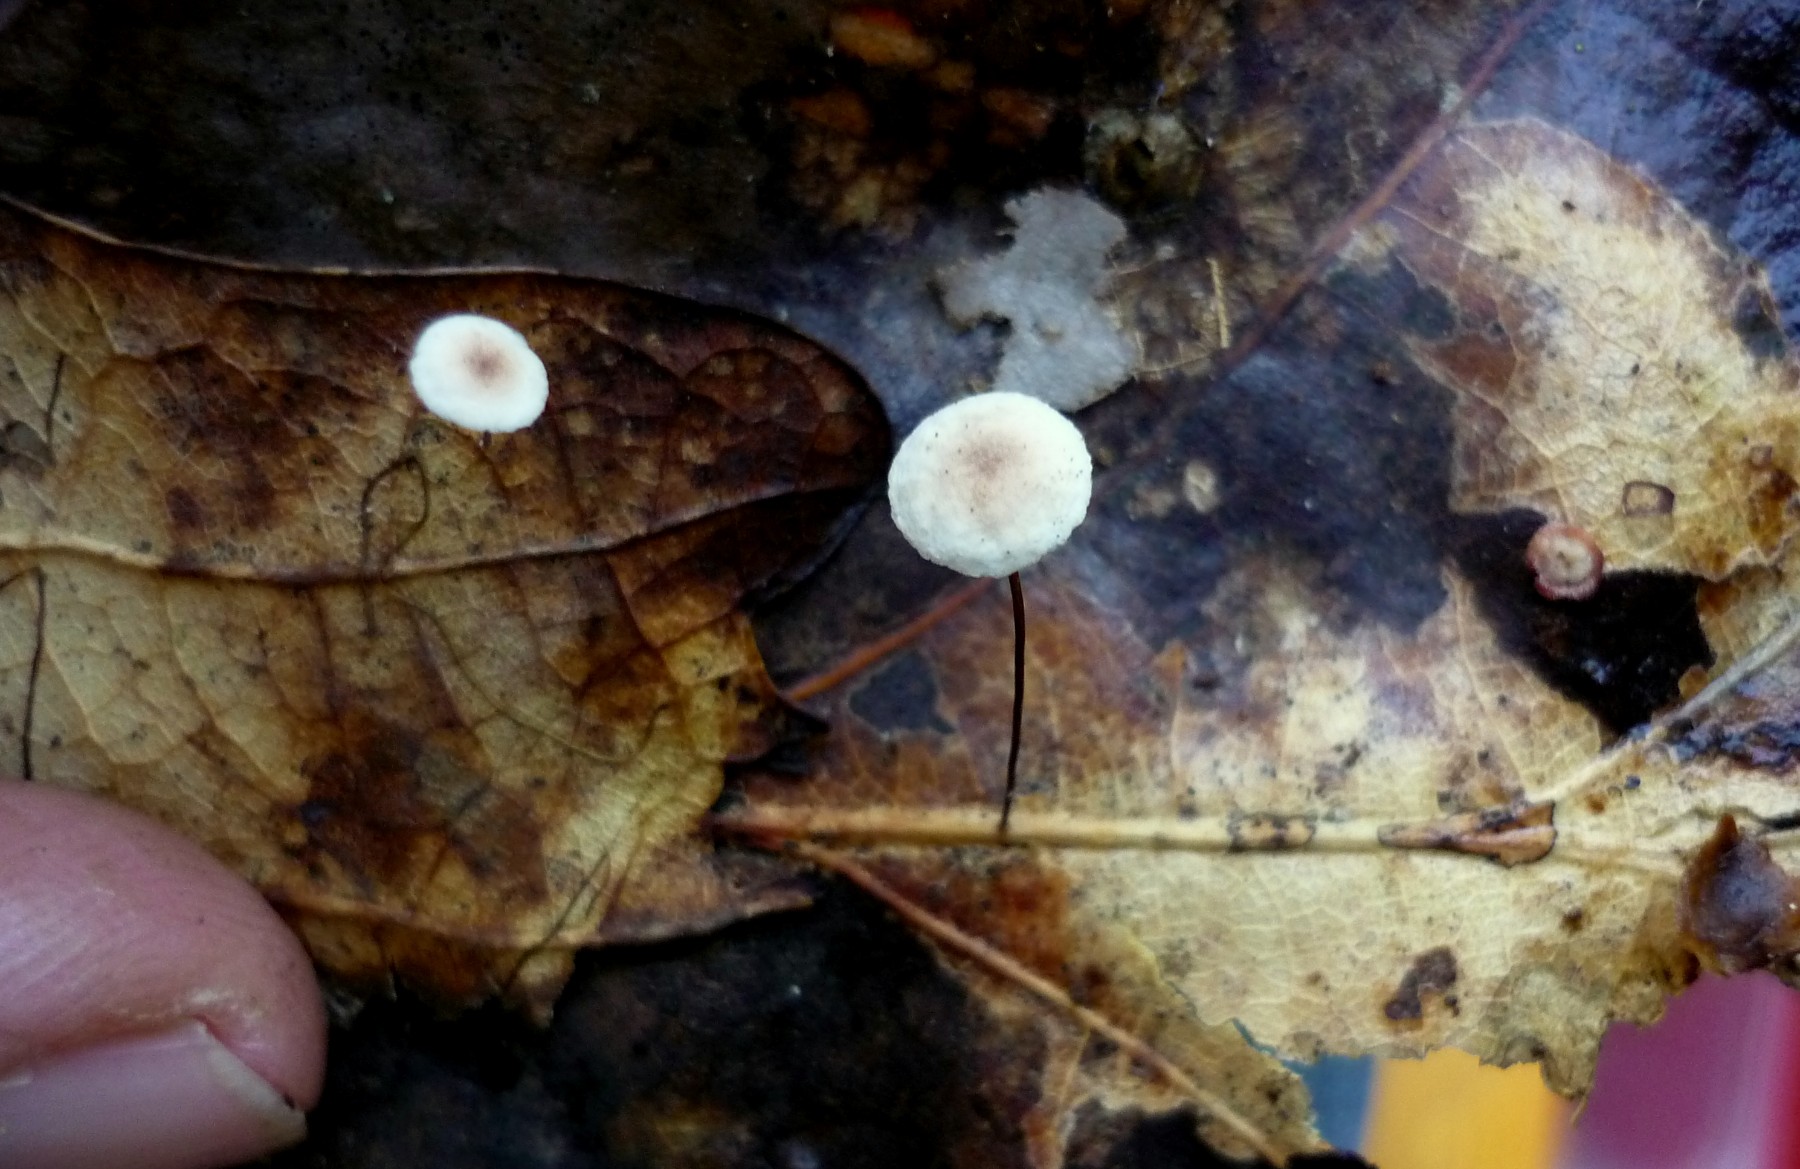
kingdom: Fungi
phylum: Basidiomycota
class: Agaricomycetes
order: Agaricales
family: Omphalotaceae
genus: Collybiopsis
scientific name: Collybiopsis quercophila
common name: egeblads-bruskhat
